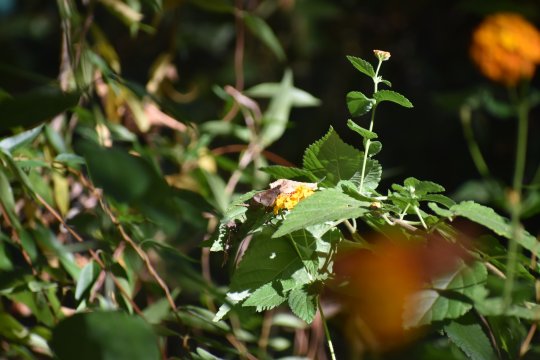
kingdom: Animalia
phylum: Arthropoda
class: Insecta
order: Lepidoptera
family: Hesperiidae
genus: Lerema
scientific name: Lerema accius
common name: Clouded Skipper
